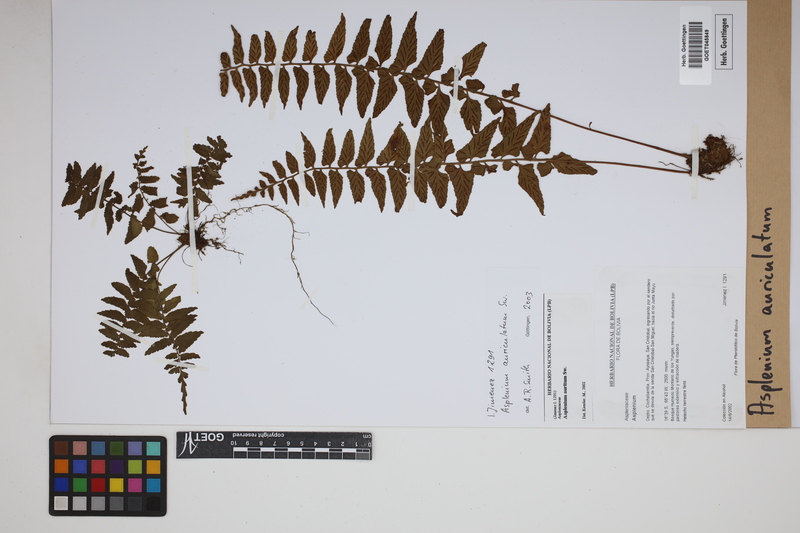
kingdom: Plantae
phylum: Tracheophyta
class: Polypodiopsida
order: Polypodiales
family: Aspleniaceae
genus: Asplenium
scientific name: Asplenium auriculatum
